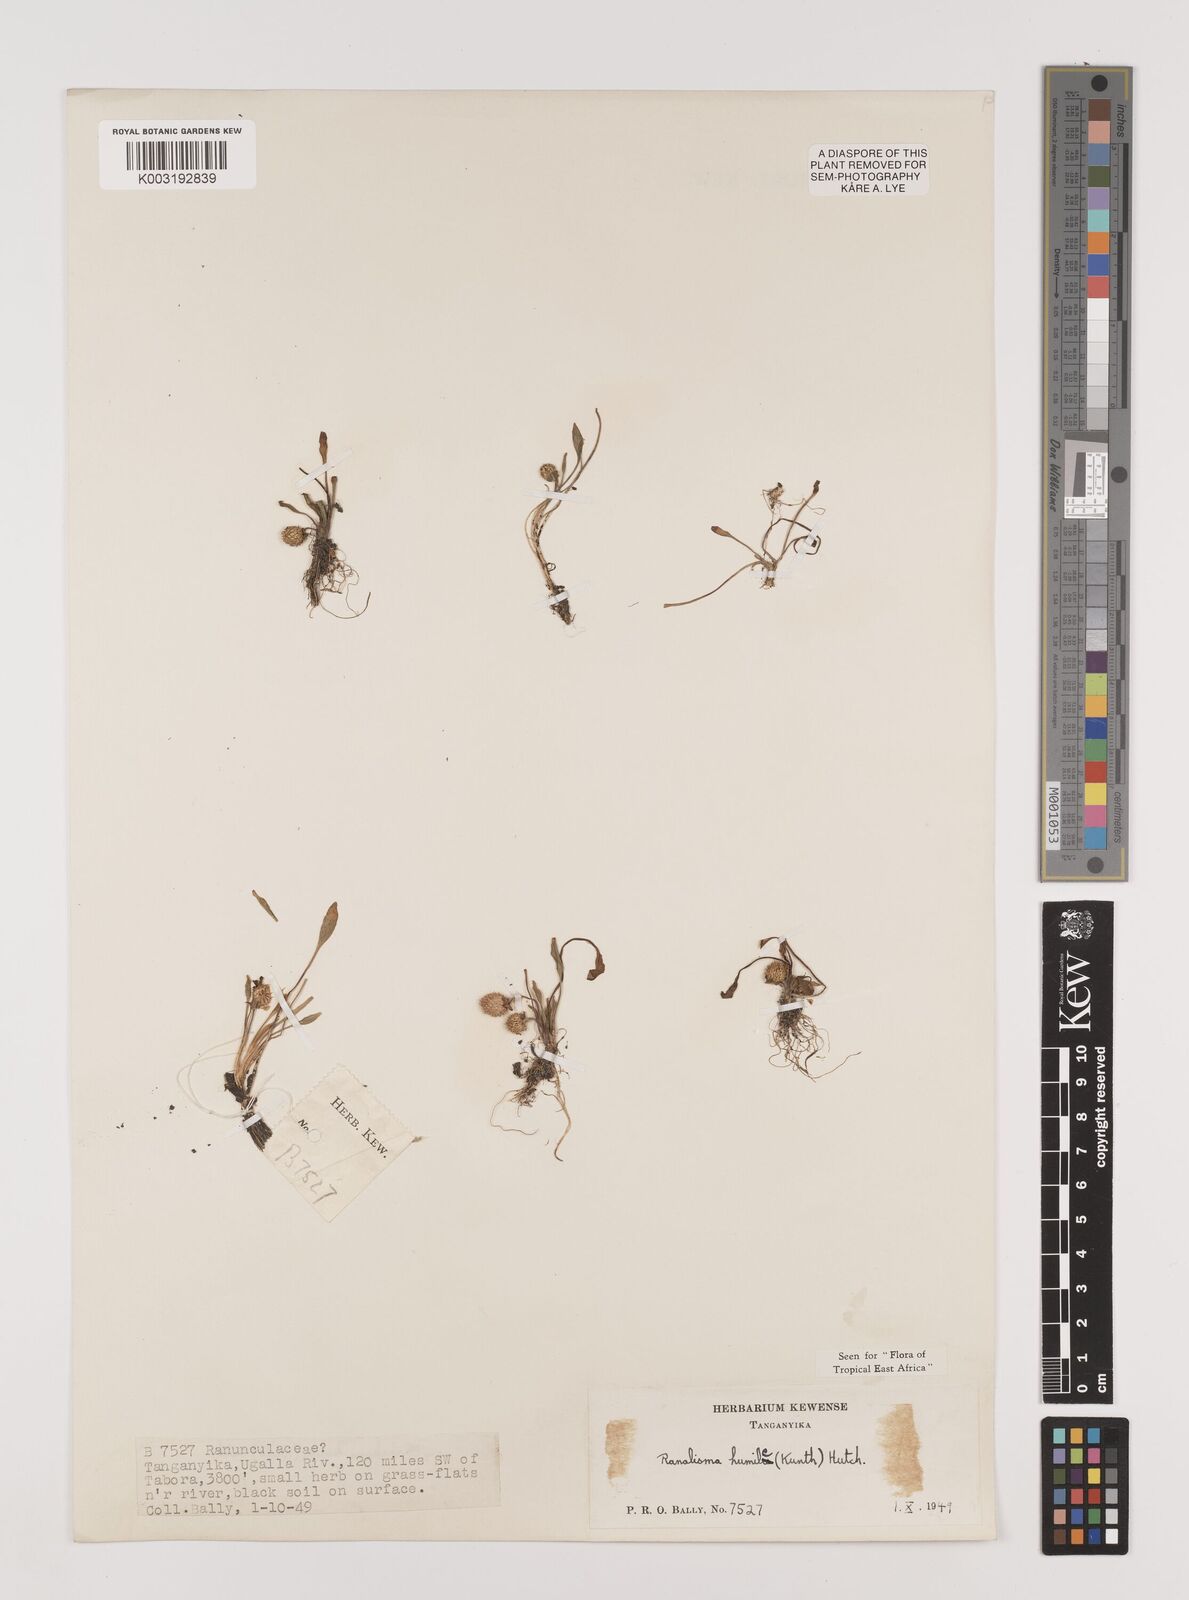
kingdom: Plantae
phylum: Tracheophyta
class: Liliopsida
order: Alismatales
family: Alismataceae
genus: Ranalisma
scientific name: Ranalisma humile
